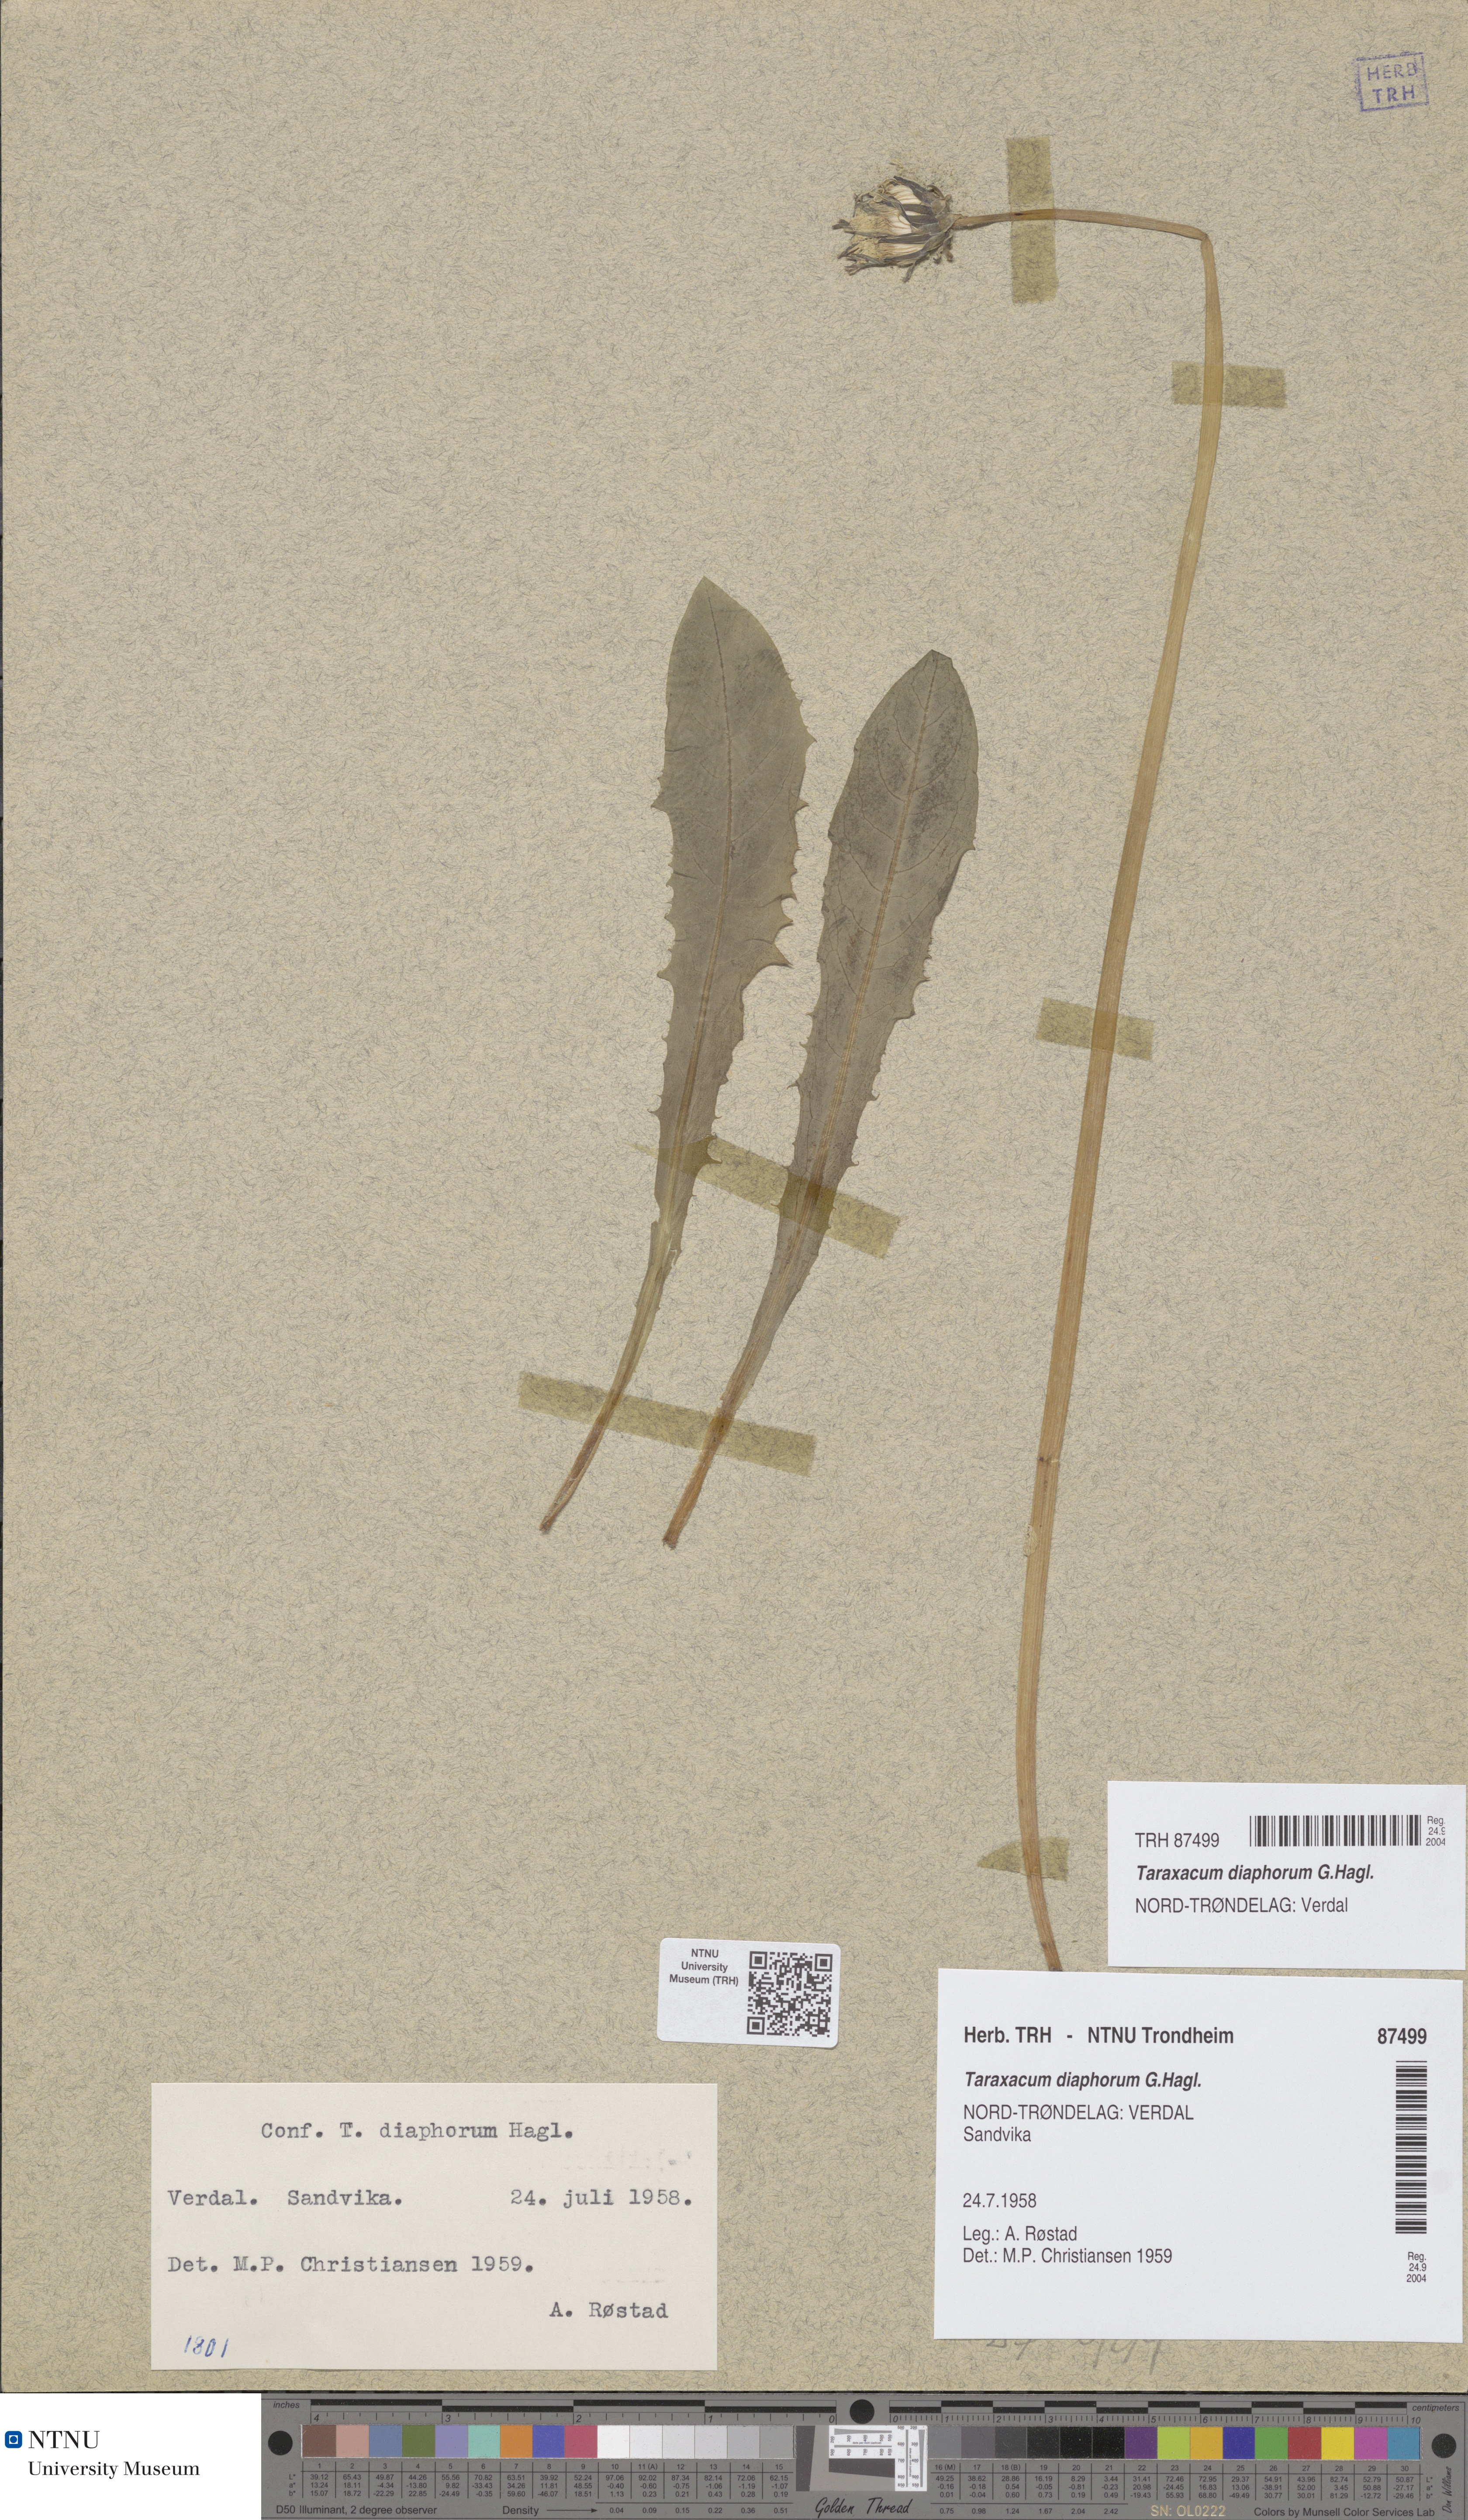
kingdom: Plantae
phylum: Tracheophyta
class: Magnoliopsida
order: Asterales
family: Asteraceae
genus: Taraxacum
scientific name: Taraxacum diaphorum
